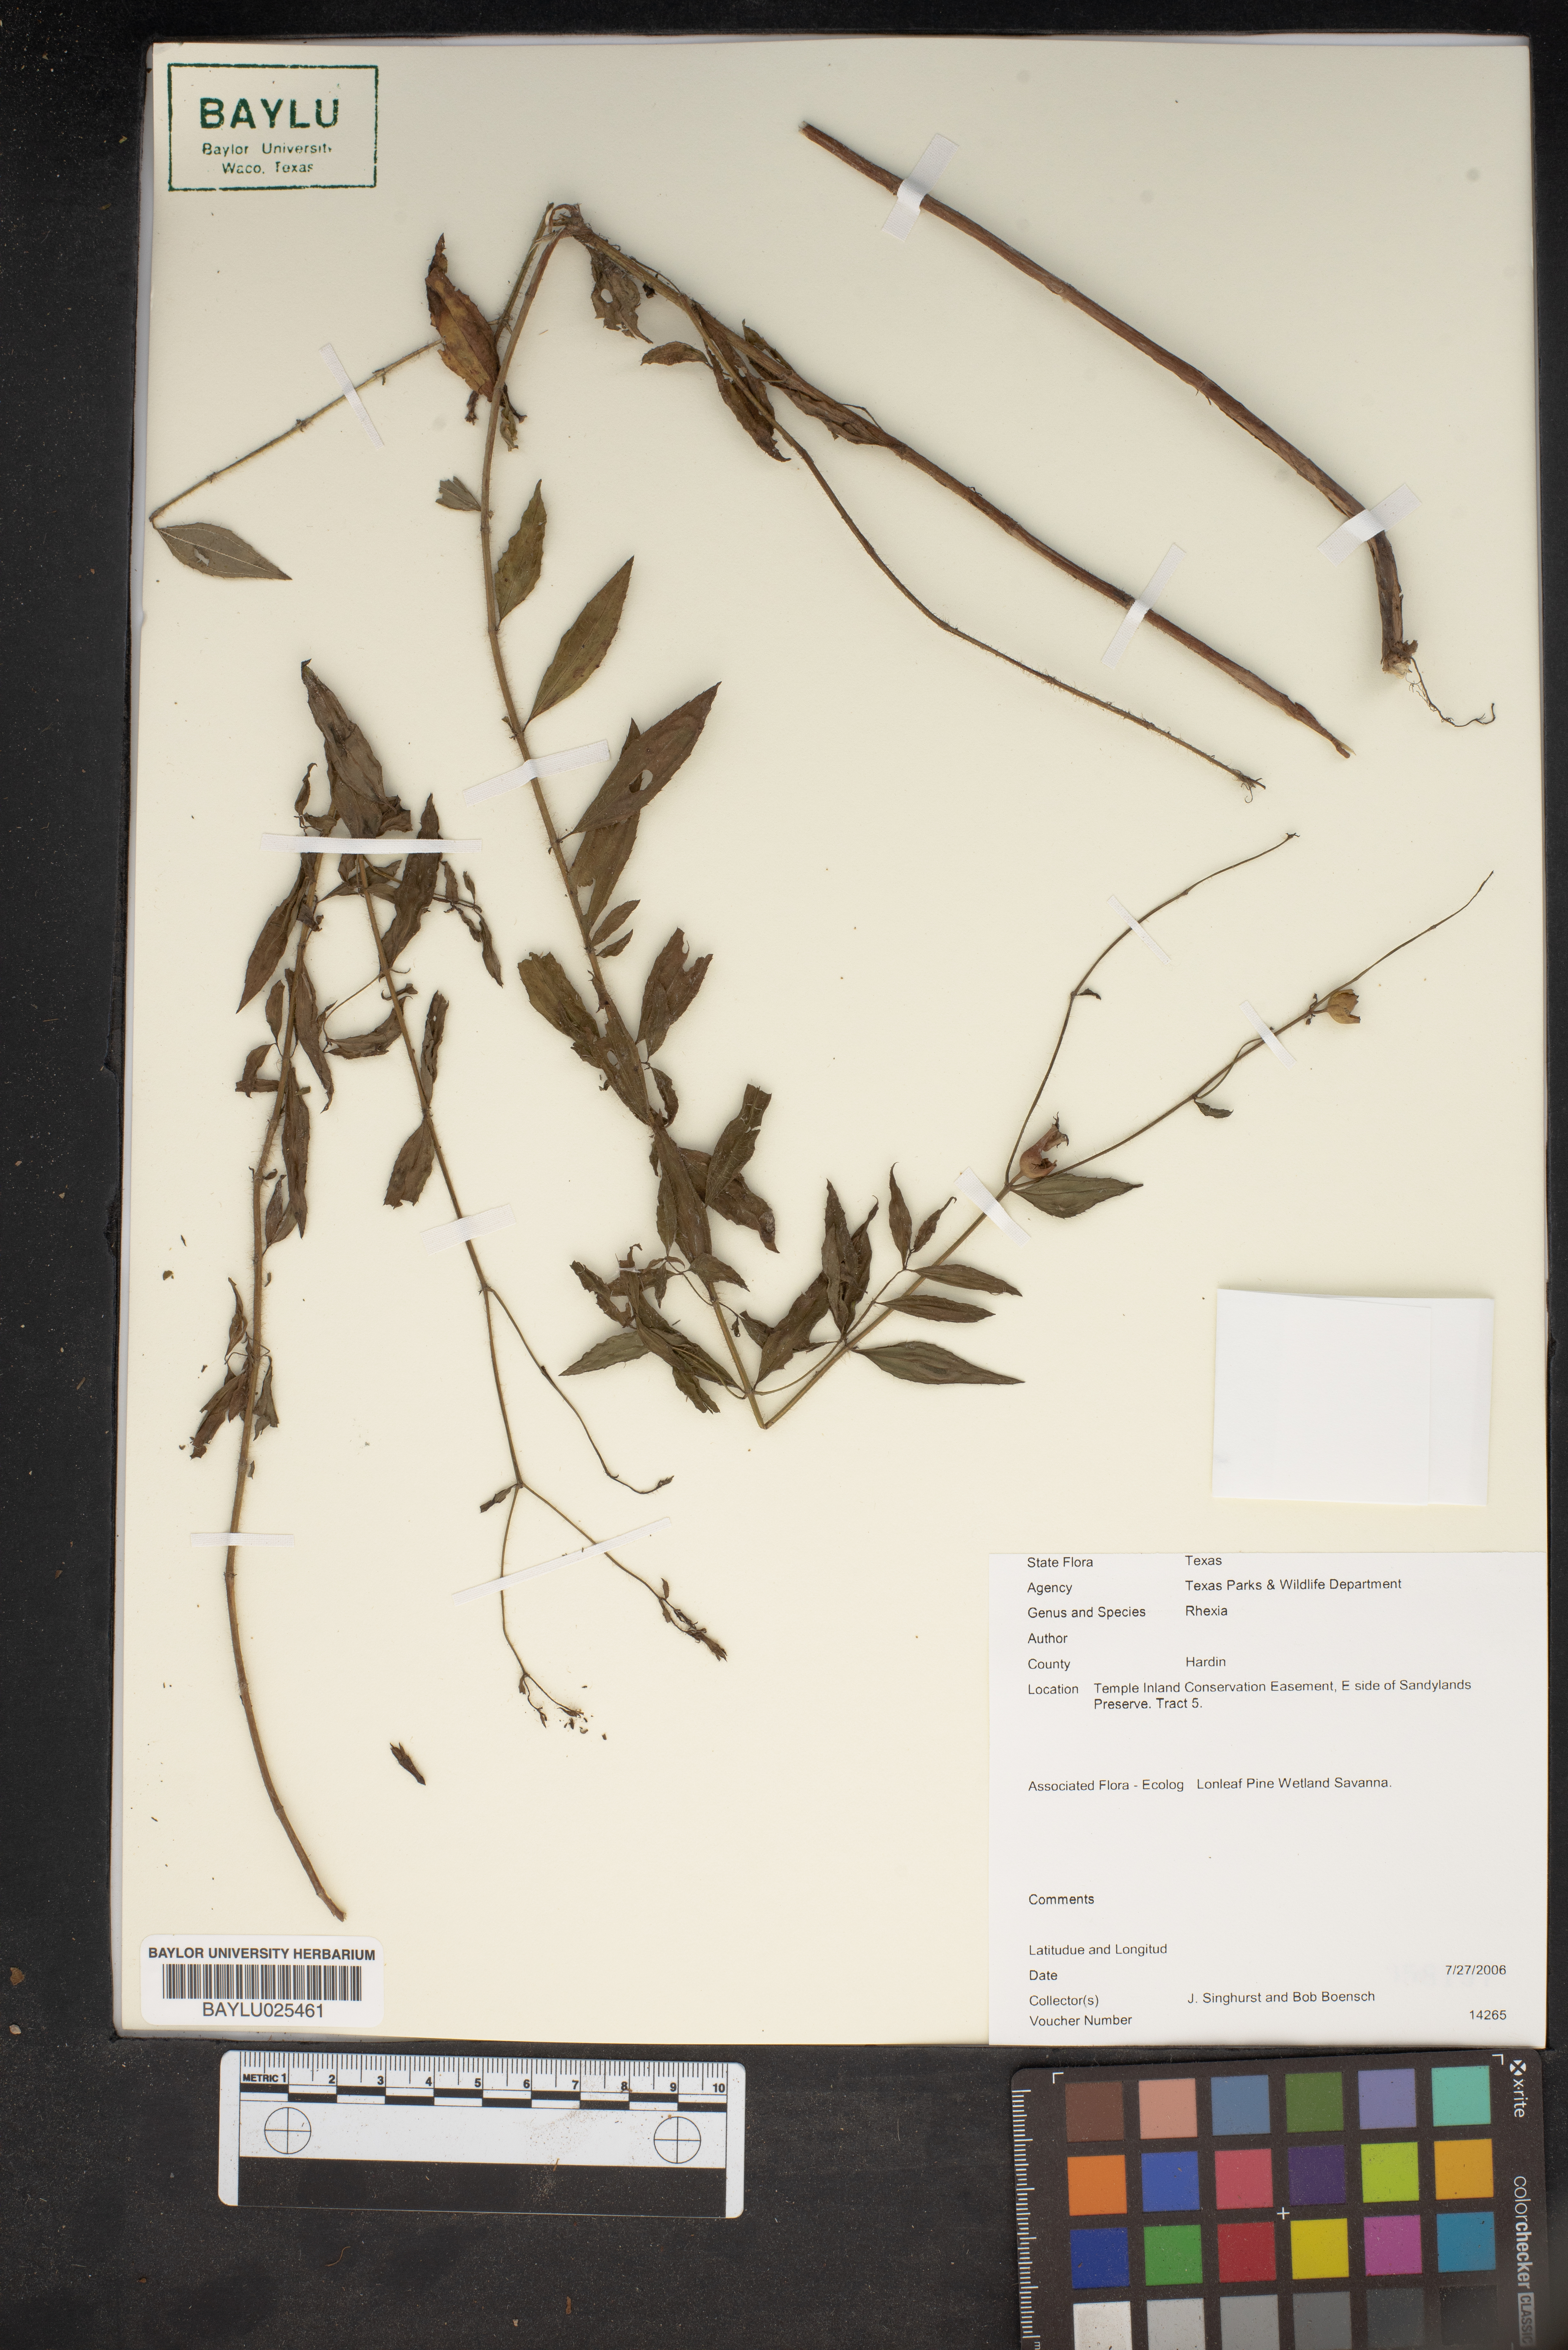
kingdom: Plantae
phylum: Tracheophyta
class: Magnoliopsida
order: Myrtales
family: Melastomataceae
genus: Rhexia
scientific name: Rhexia
